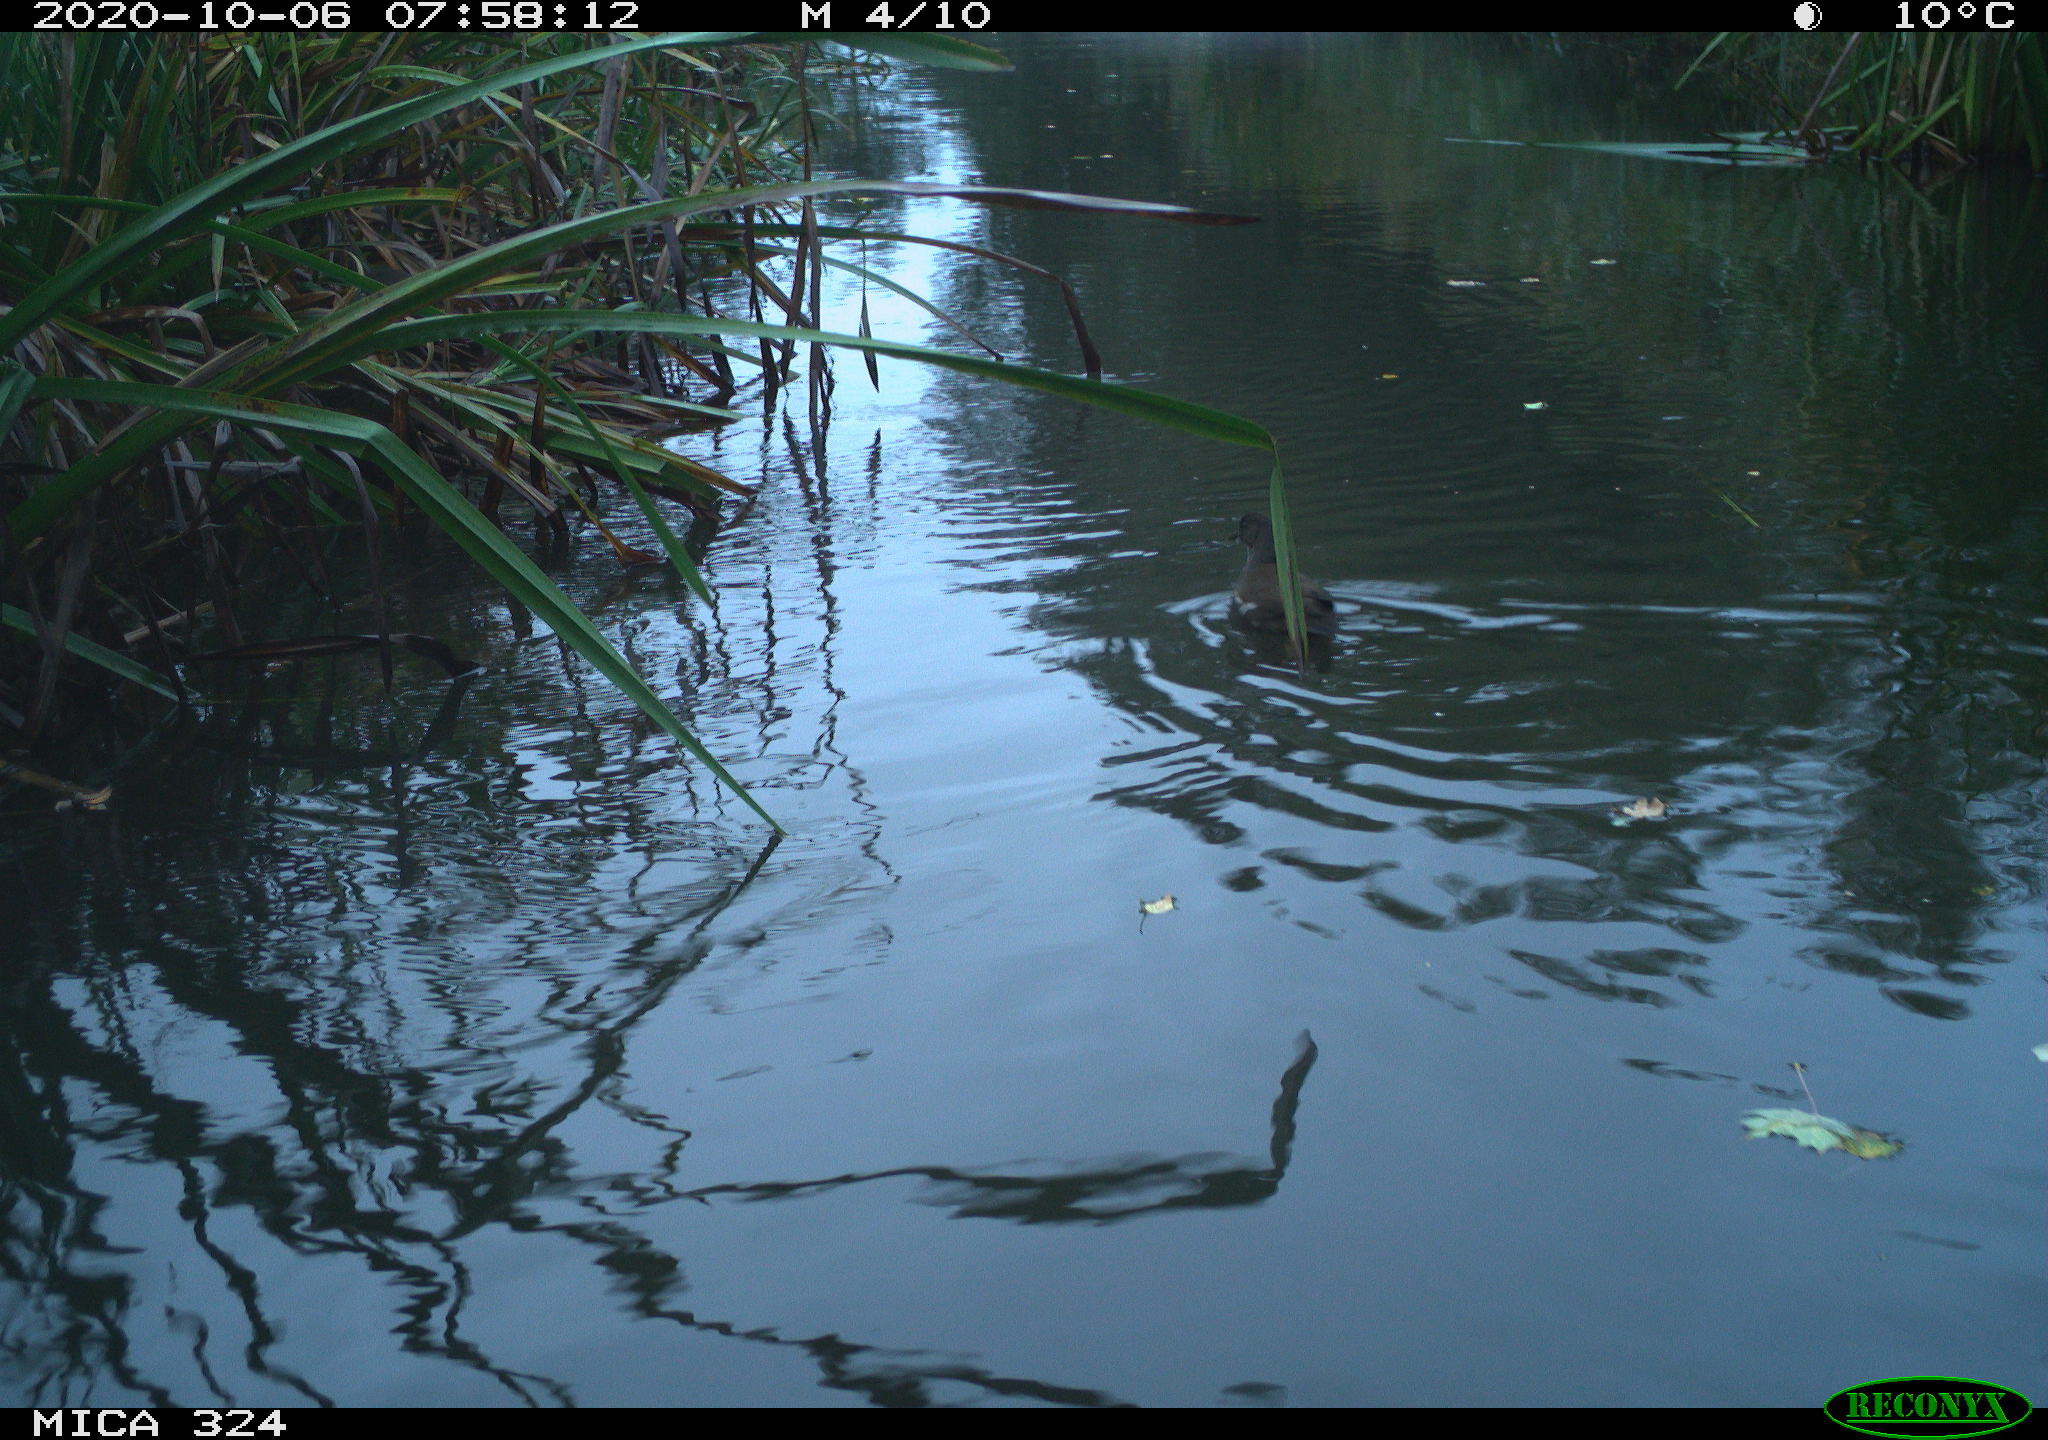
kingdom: Animalia
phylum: Chordata
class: Aves
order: Gruiformes
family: Rallidae
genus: Gallinula
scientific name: Gallinula chloropus
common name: Common moorhen
